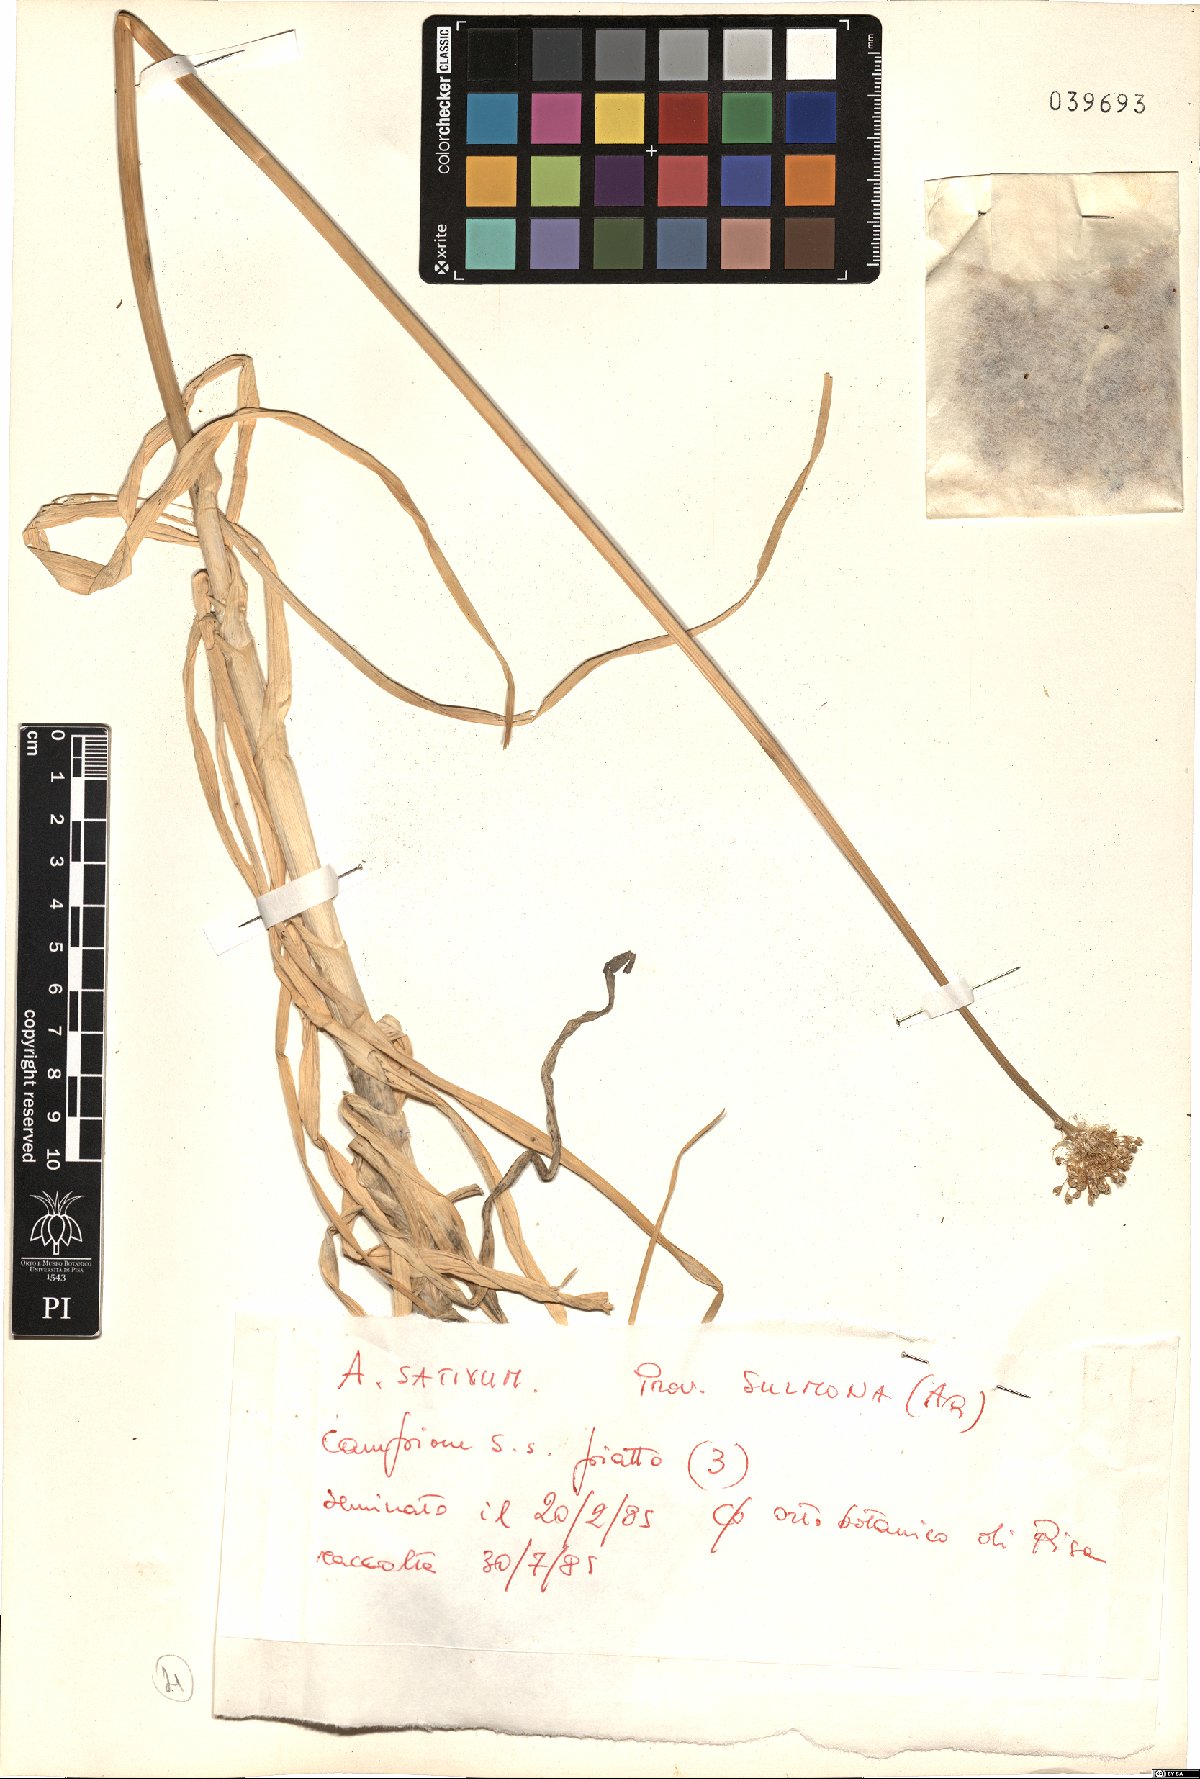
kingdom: Plantae
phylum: Tracheophyta
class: Liliopsida
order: Asparagales
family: Amaryllidaceae
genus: Allium
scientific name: Allium sativum
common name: Garlic
